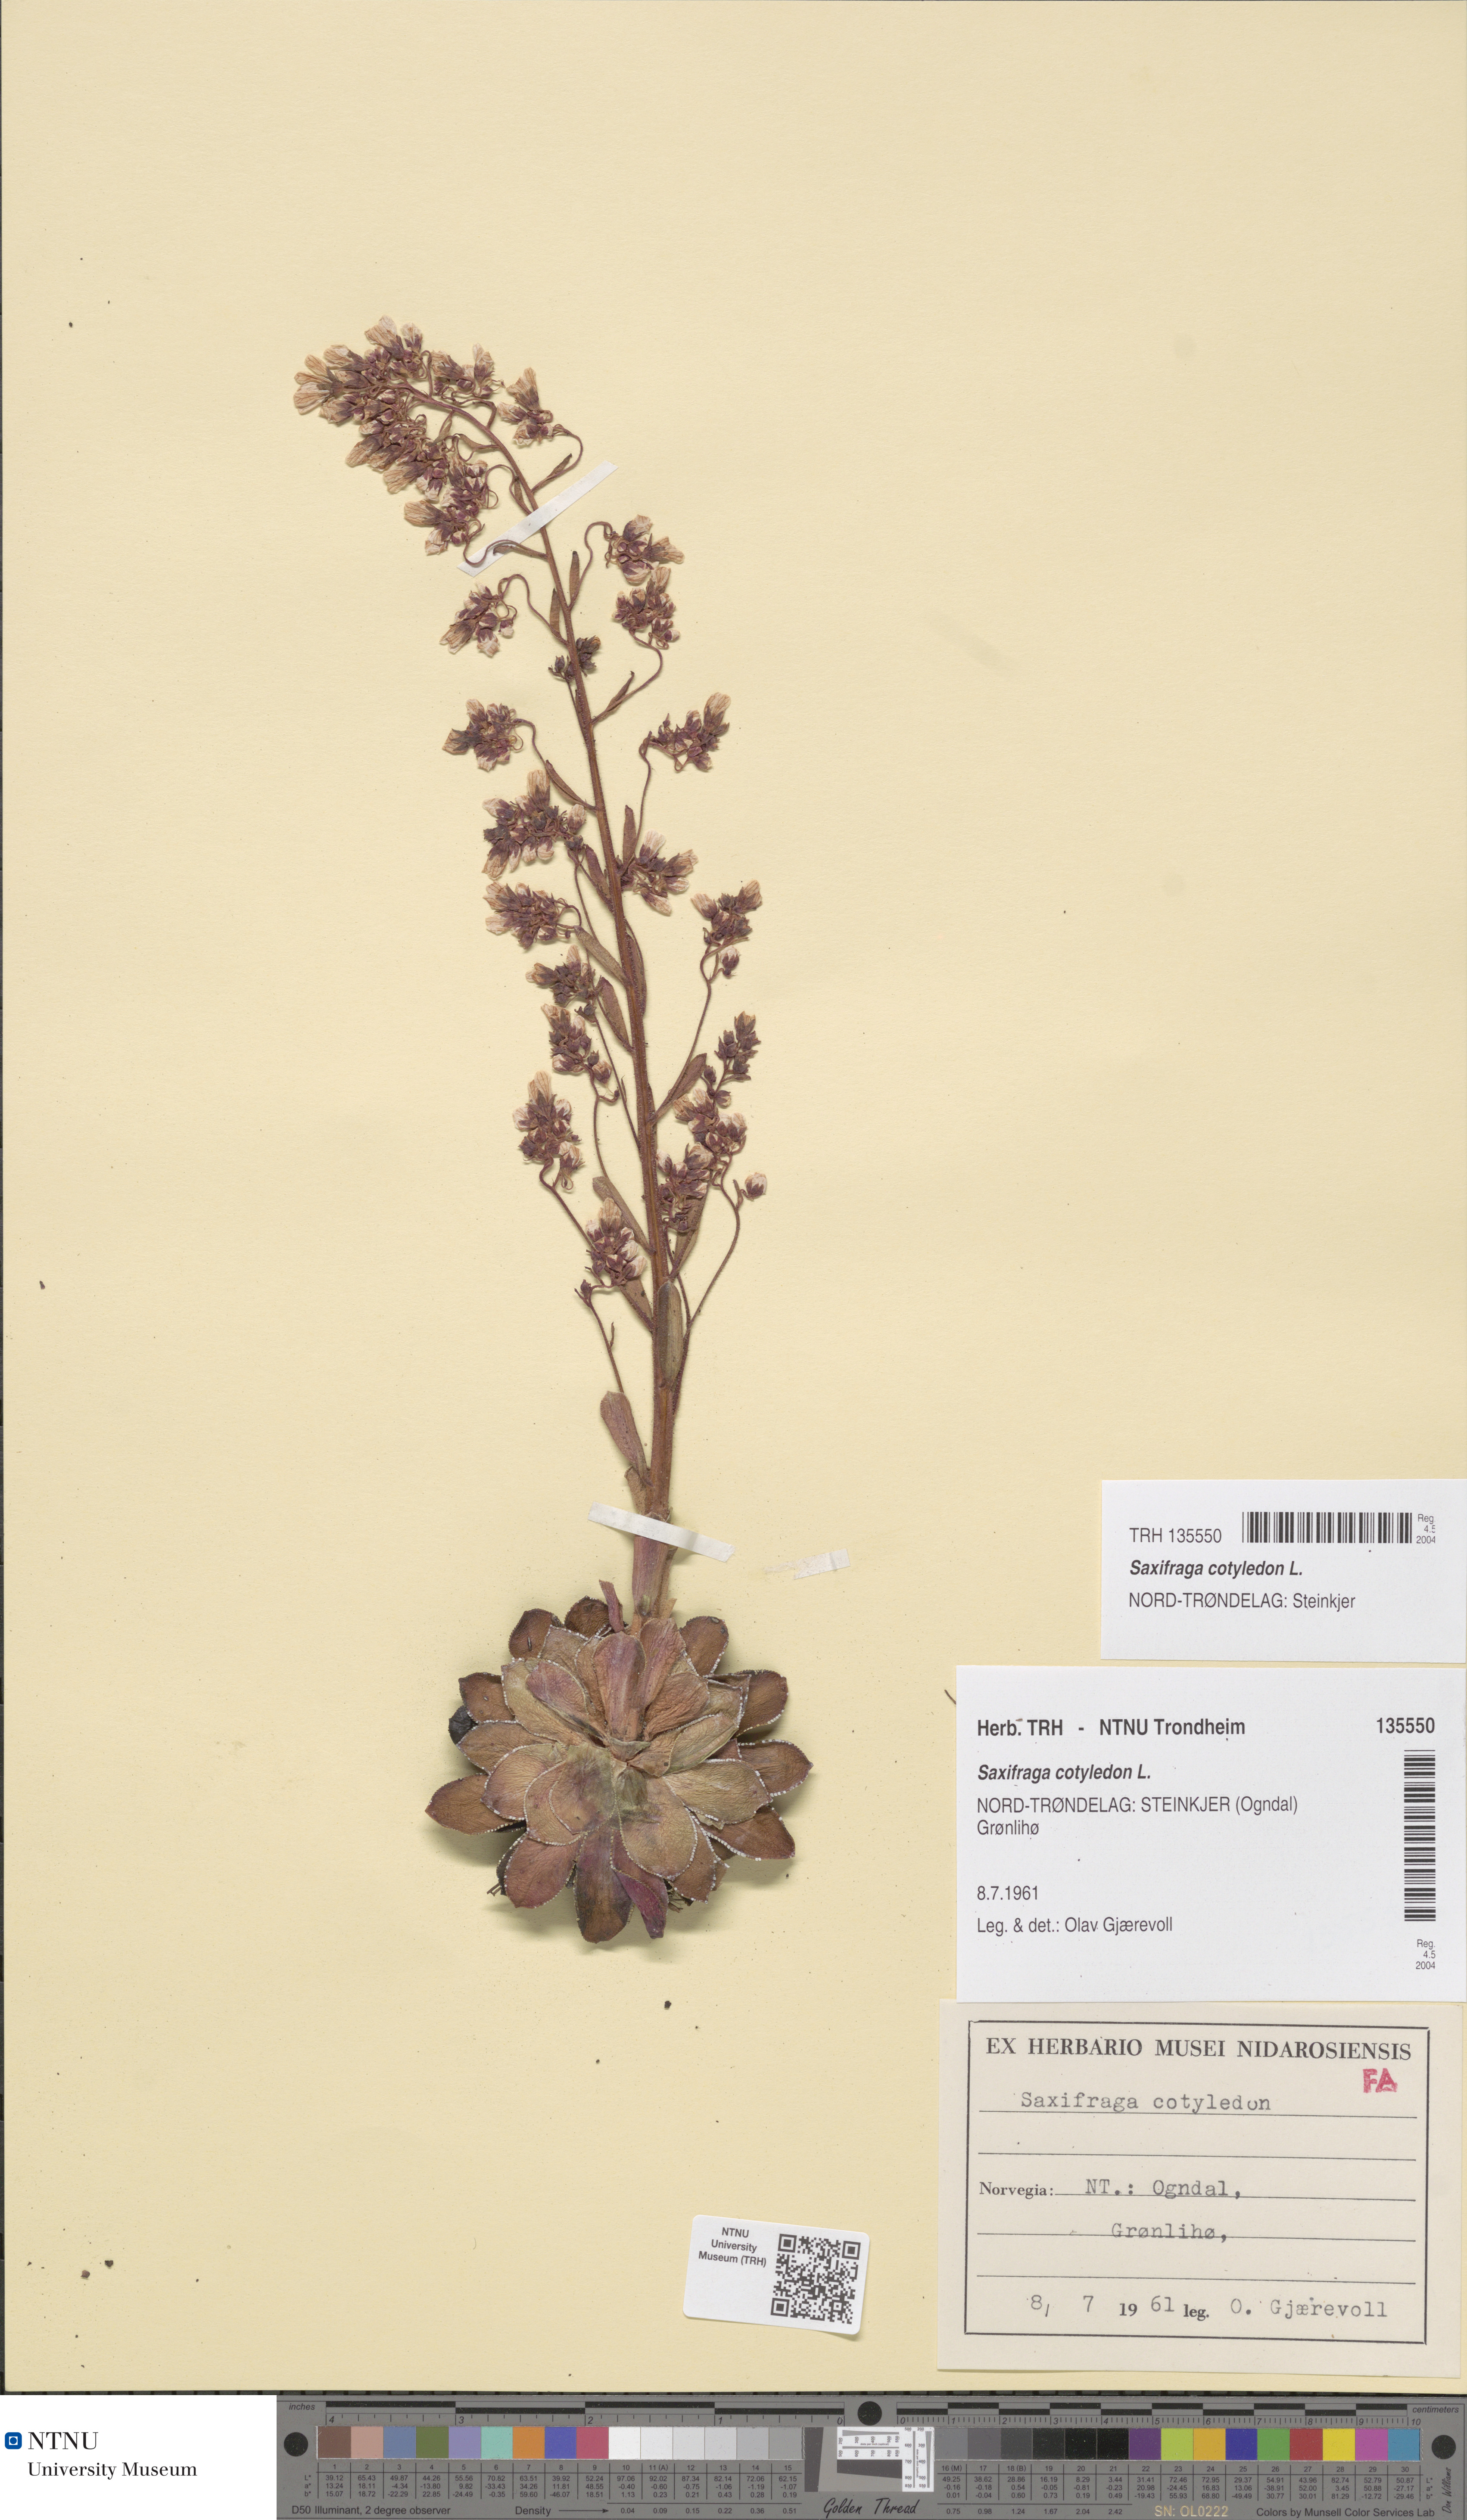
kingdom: Plantae
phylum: Tracheophyta
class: Magnoliopsida
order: Saxifragales
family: Saxifragaceae
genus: Saxifraga
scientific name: Saxifraga cotyledon
